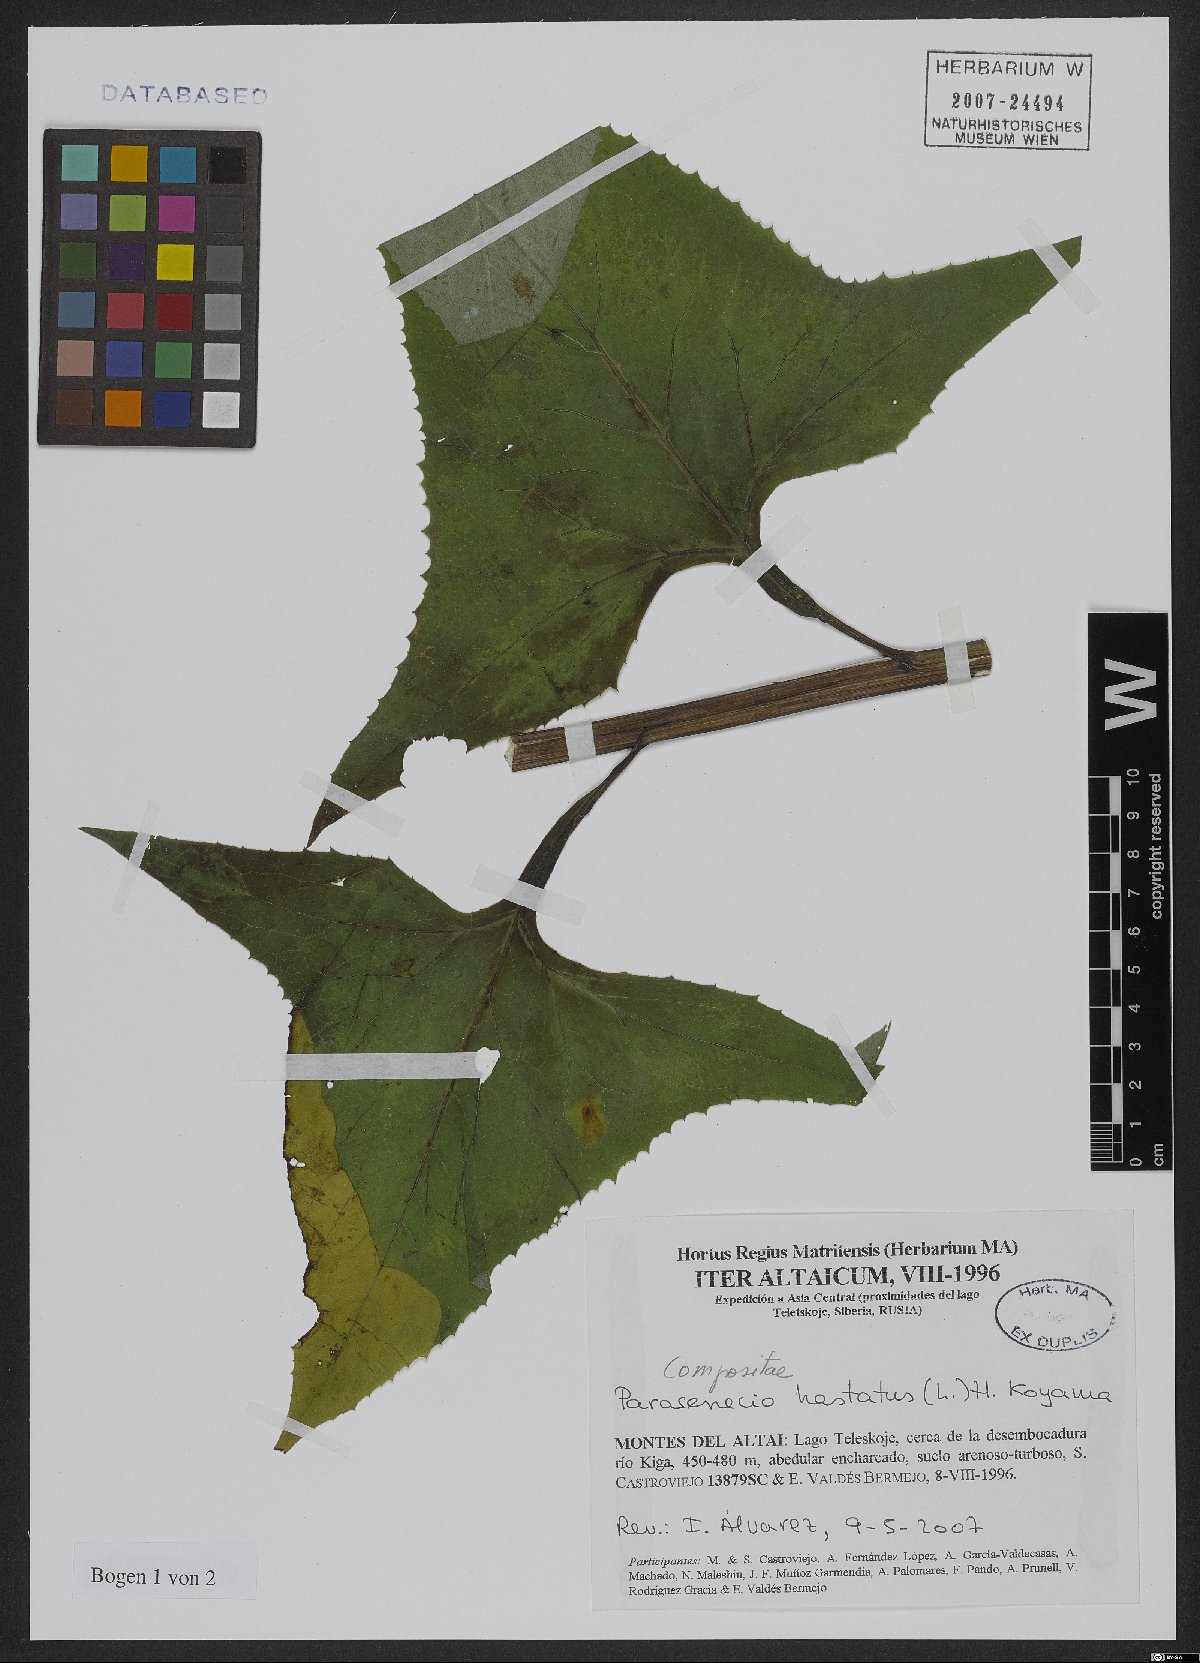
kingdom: Plantae
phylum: Tracheophyta
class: Magnoliopsida
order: Asterales
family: Asteraceae
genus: Parasenecio
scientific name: Parasenecio hastatus
